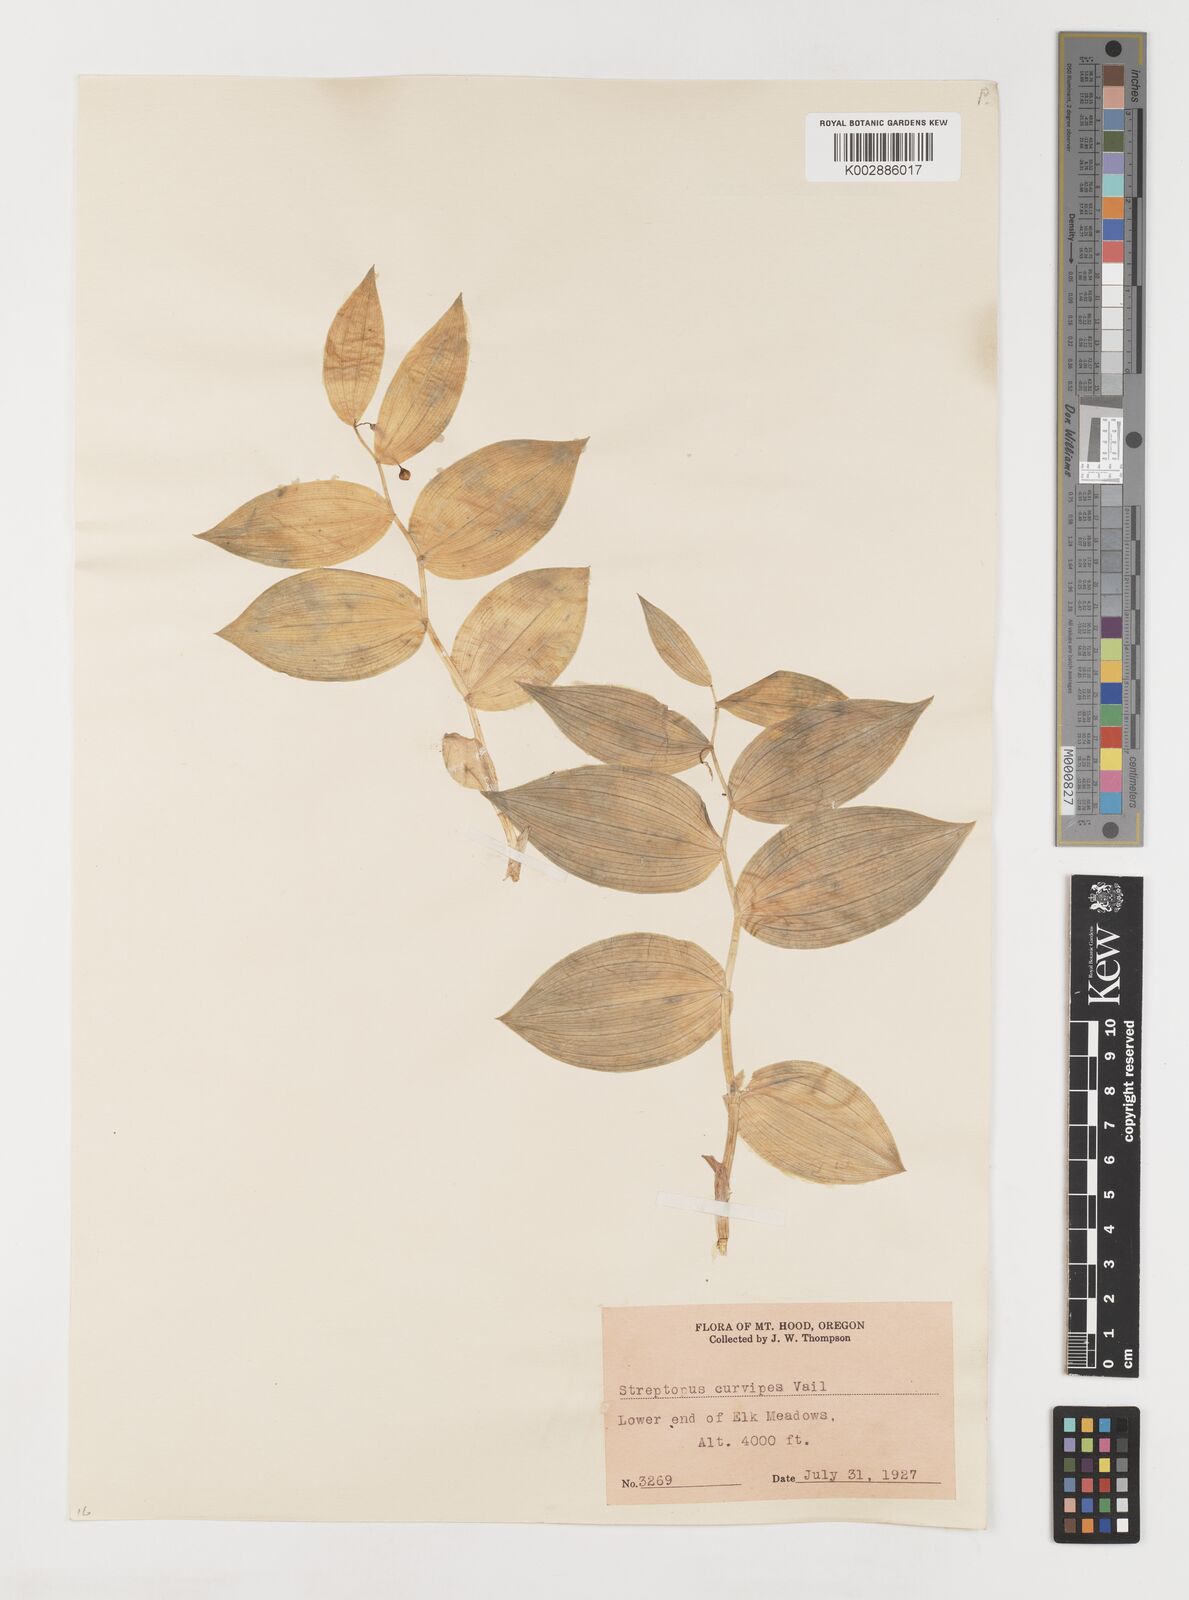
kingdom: Plantae
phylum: Tracheophyta
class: Liliopsida
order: Liliales
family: Liliaceae
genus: Streptopus
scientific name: Streptopus lanceolatus
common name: Rose mandarin
